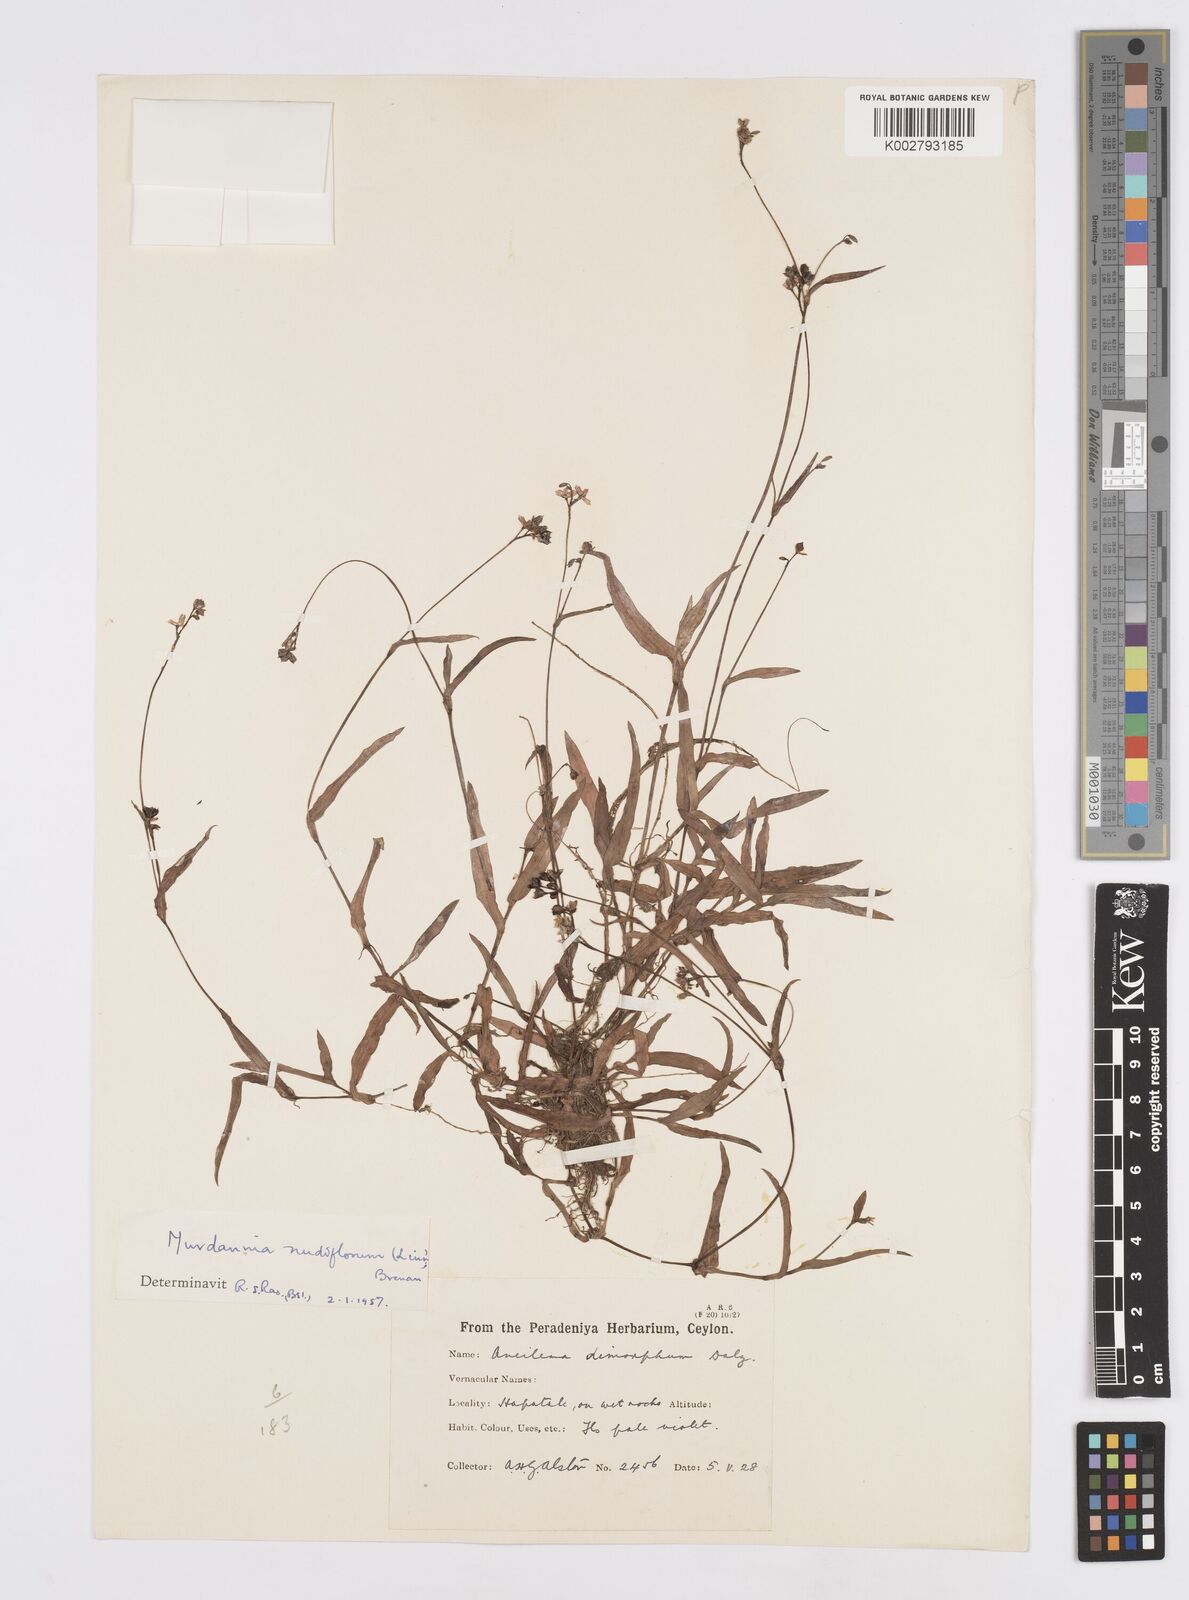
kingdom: Plantae
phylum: Tracheophyta
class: Liliopsida
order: Commelinales
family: Commelinaceae
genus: Murdannia
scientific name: Murdannia nudiflora
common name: Nakedstem dewflower
